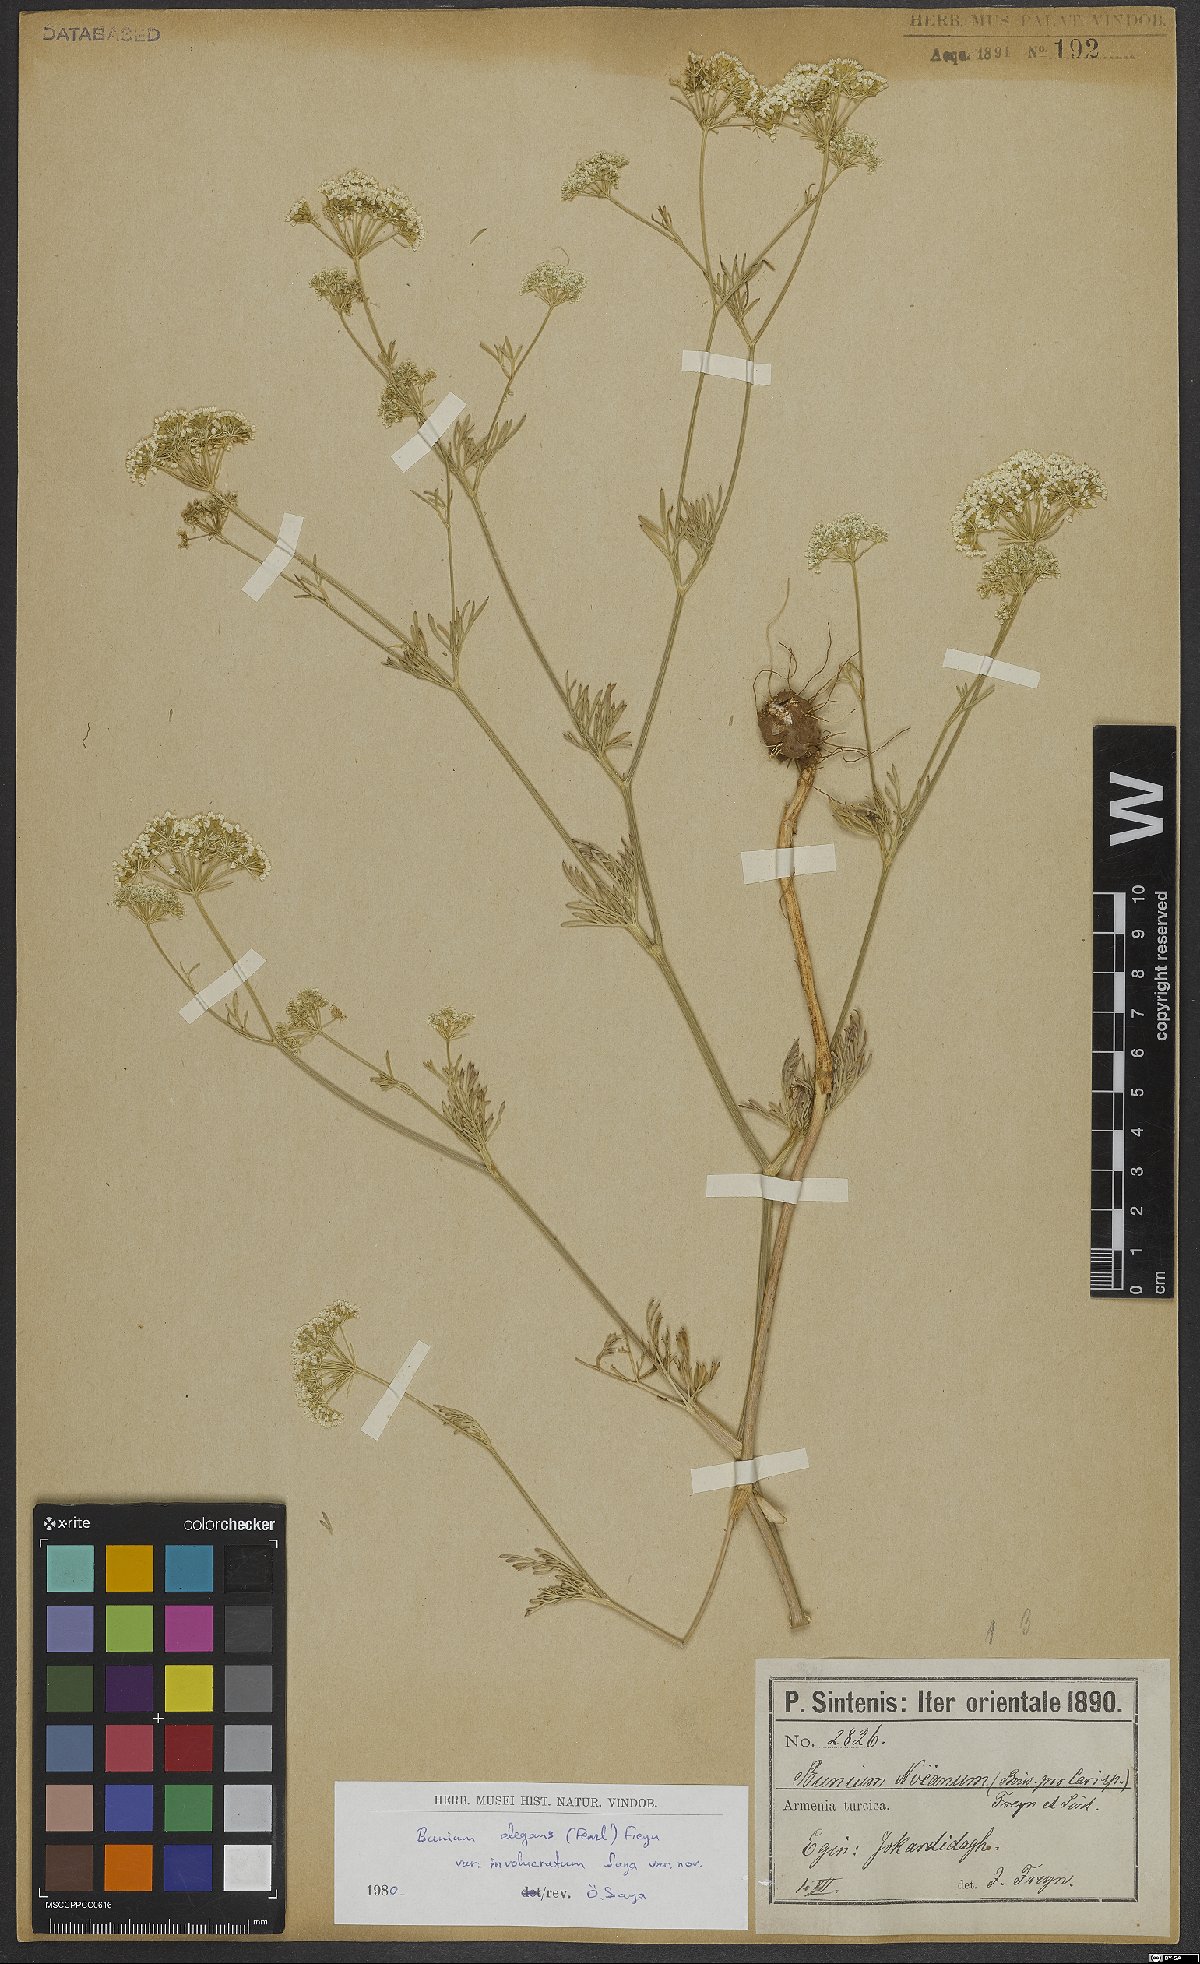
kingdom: Plantae
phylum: Tracheophyta
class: Magnoliopsida
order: Apiales
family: Apiaceae
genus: Bunium
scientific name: Bunium elegans
